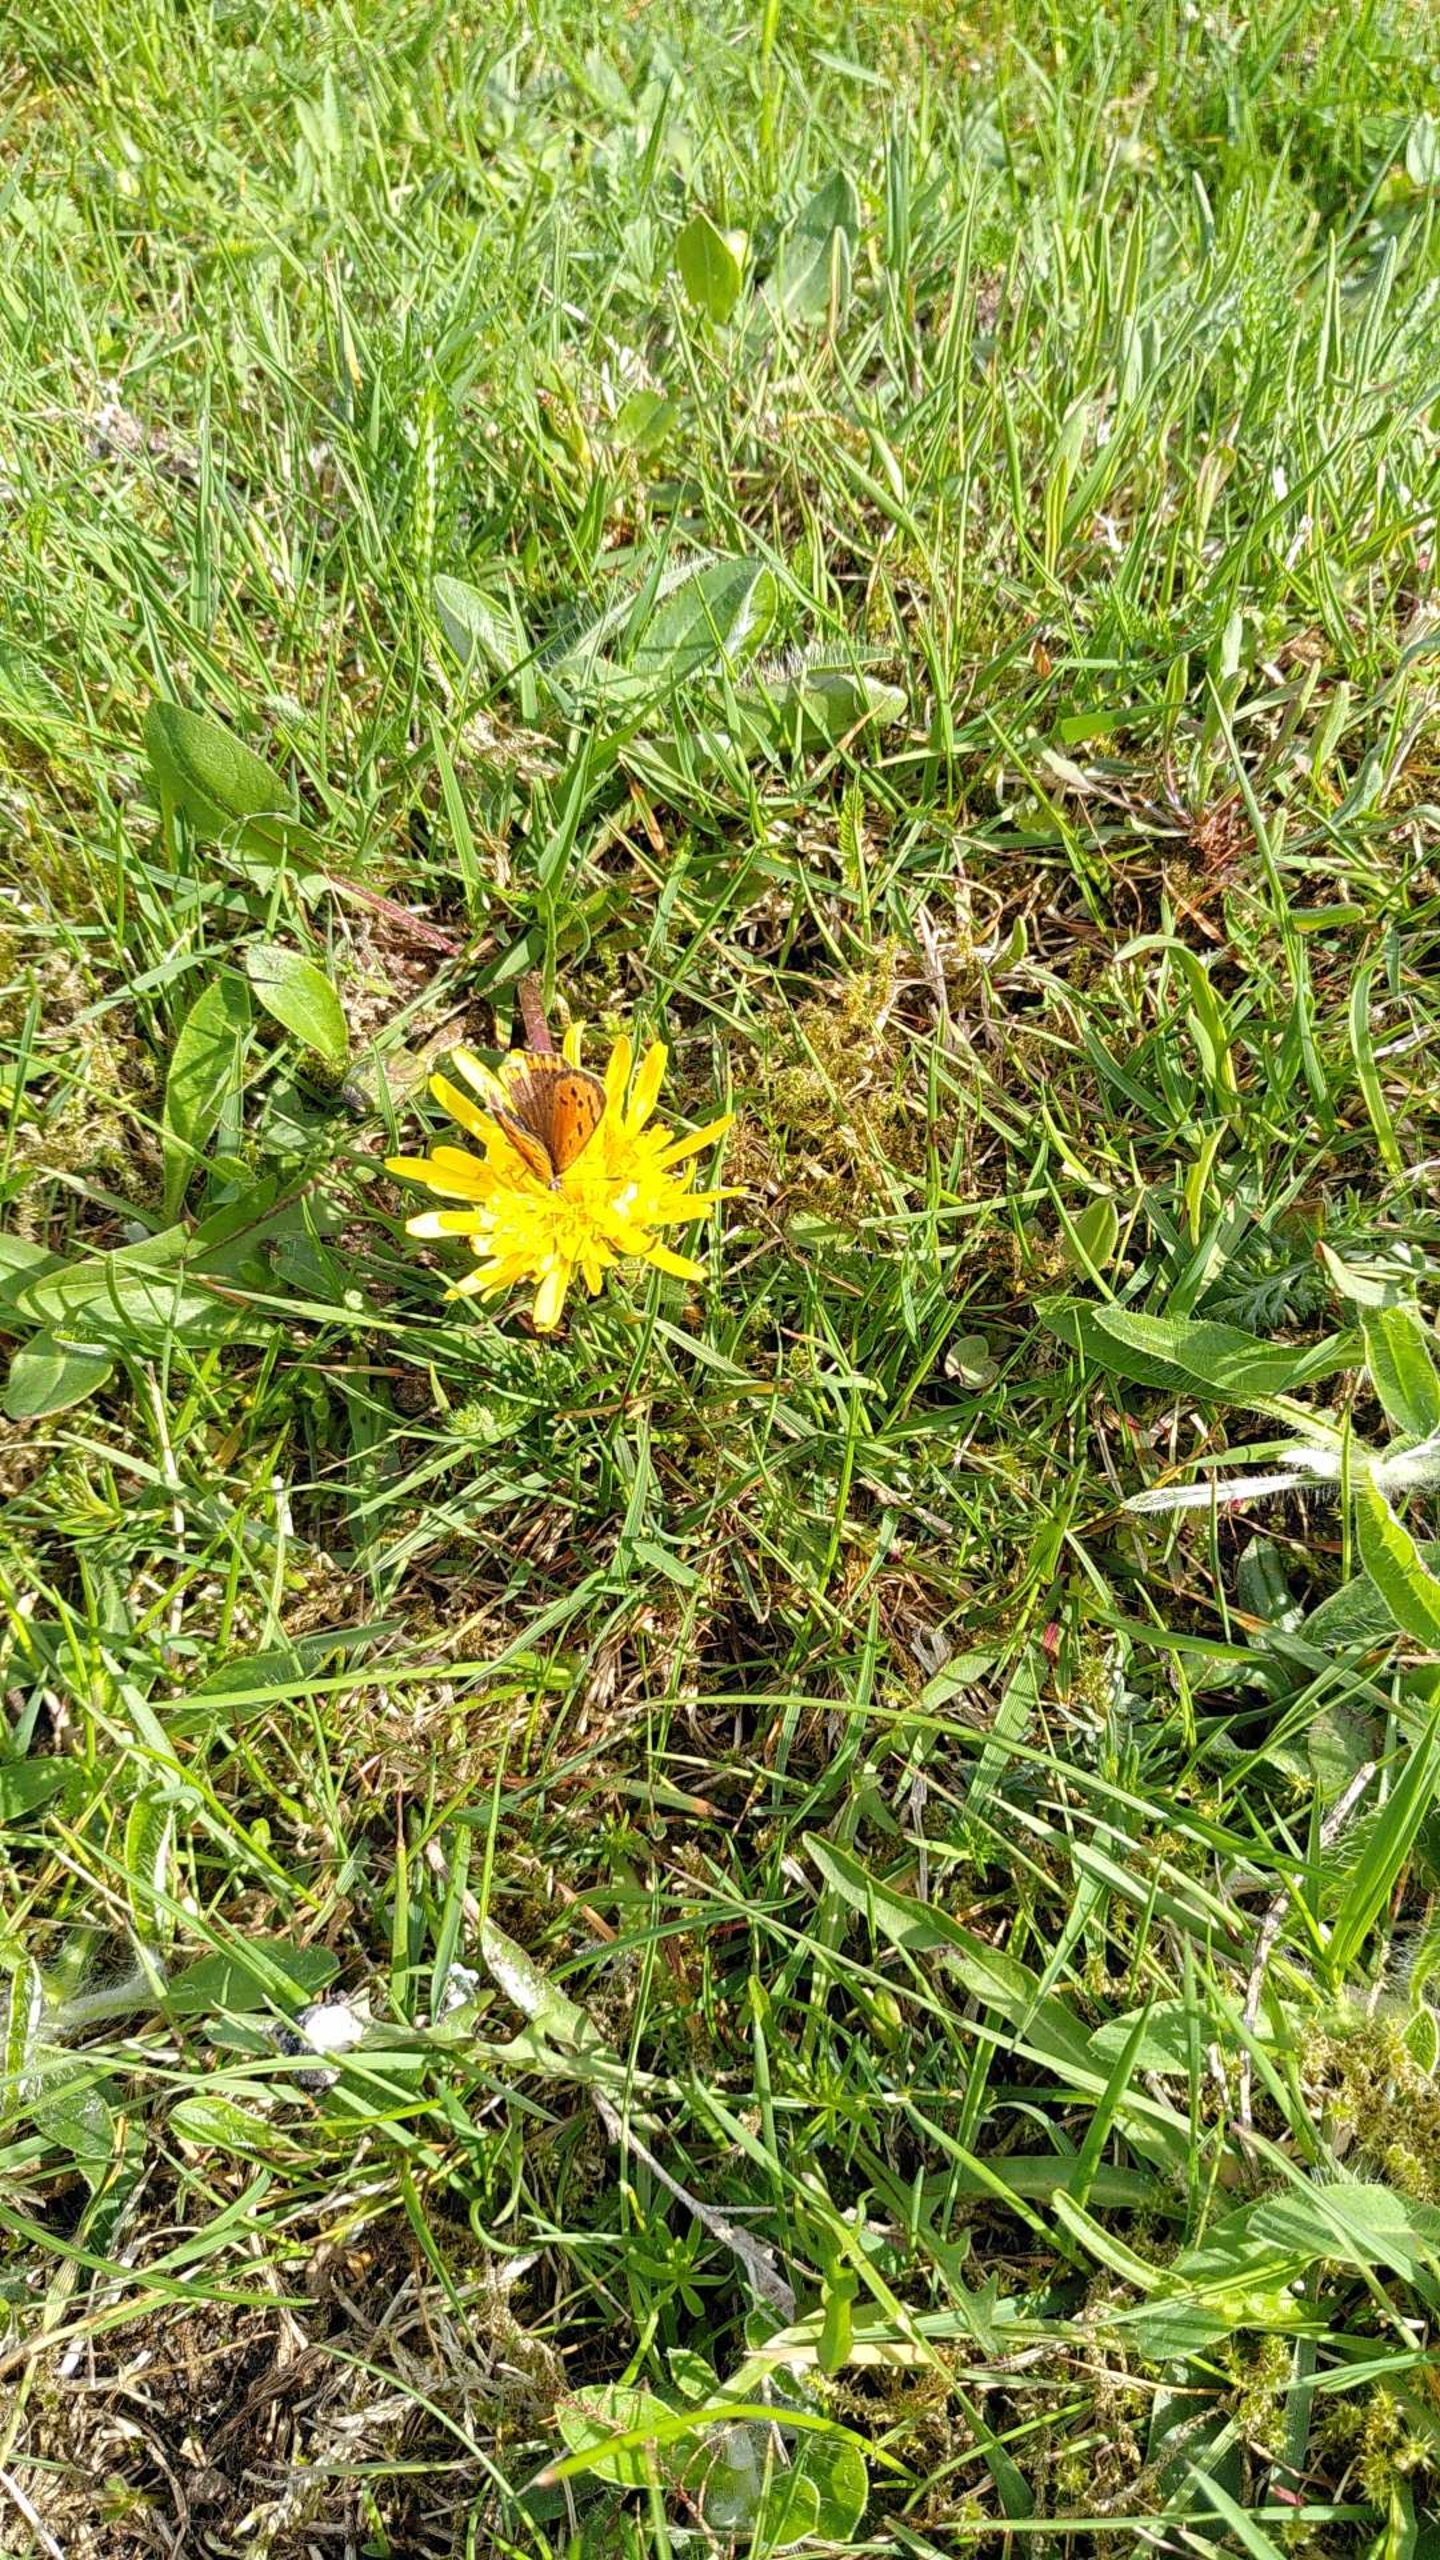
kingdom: Animalia
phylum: Arthropoda
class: Insecta
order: Lepidoptera
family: Lycaenidae
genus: Lycaena
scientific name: Lycaena phlaeas
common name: Lille ildfugl
